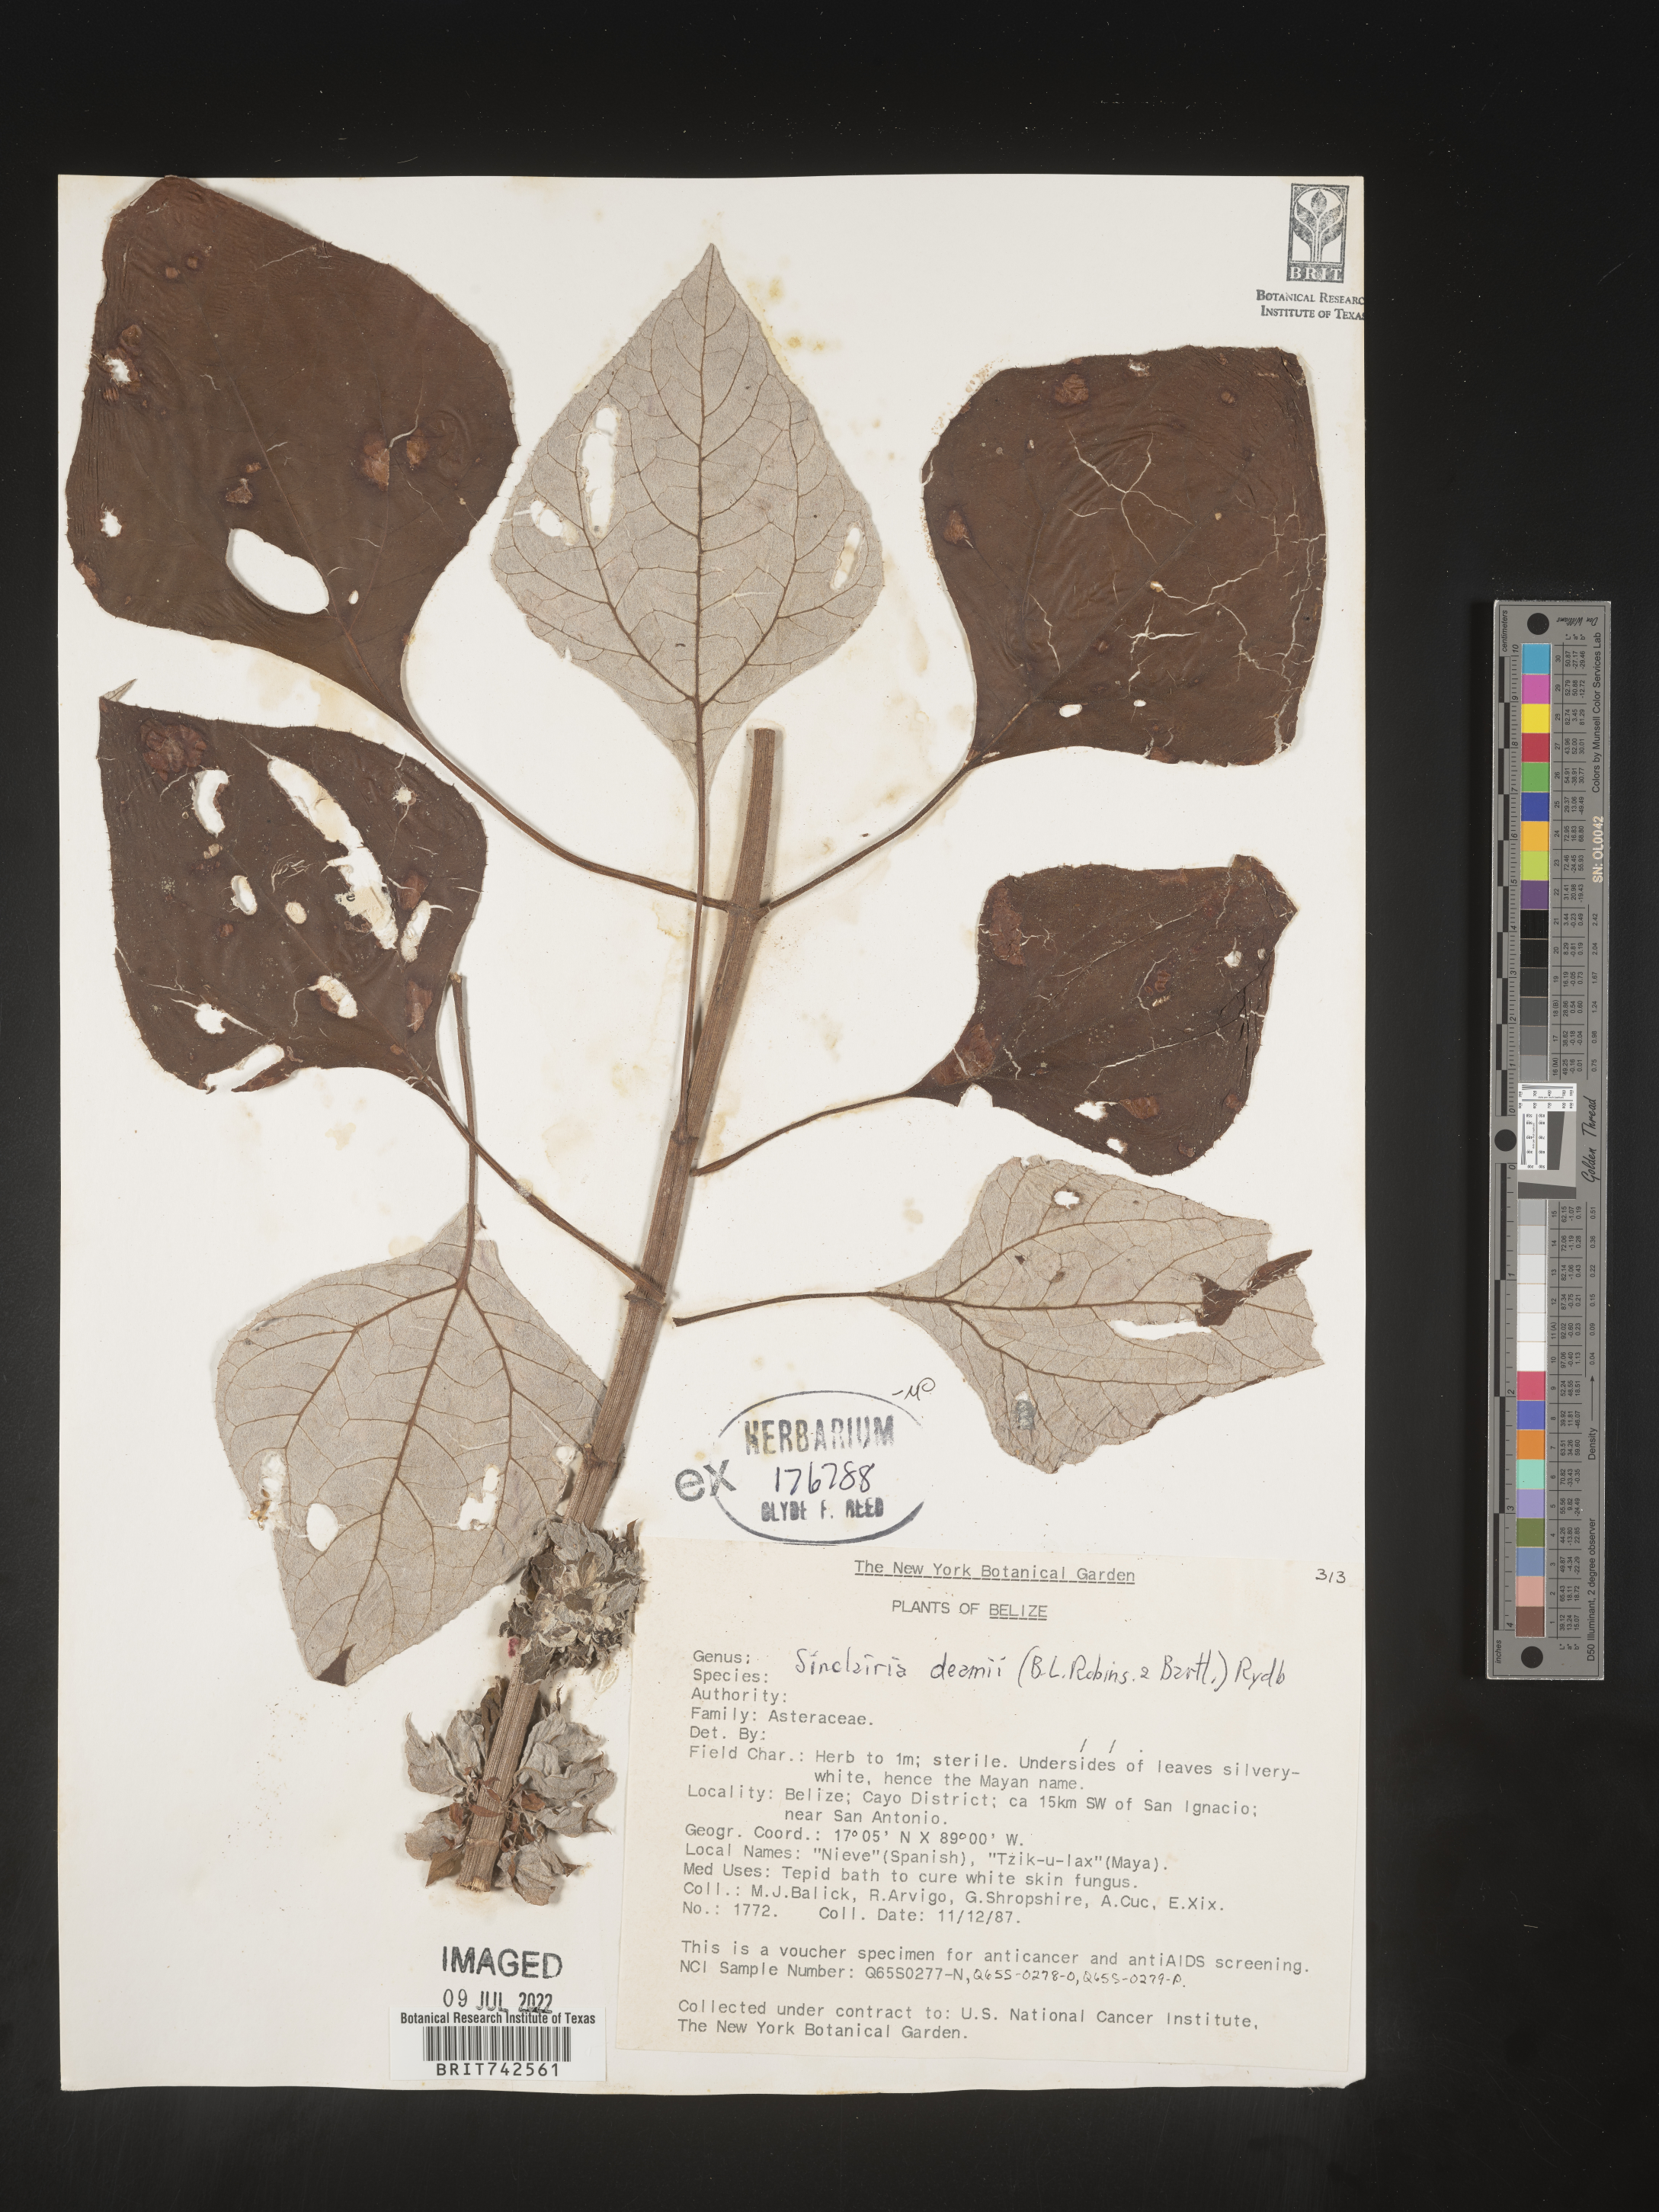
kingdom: Plantae
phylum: Tracheophyta
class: Magnoliopsida
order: Asterales
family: Asteraceae
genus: Sinclairia
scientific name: Sinclairia
